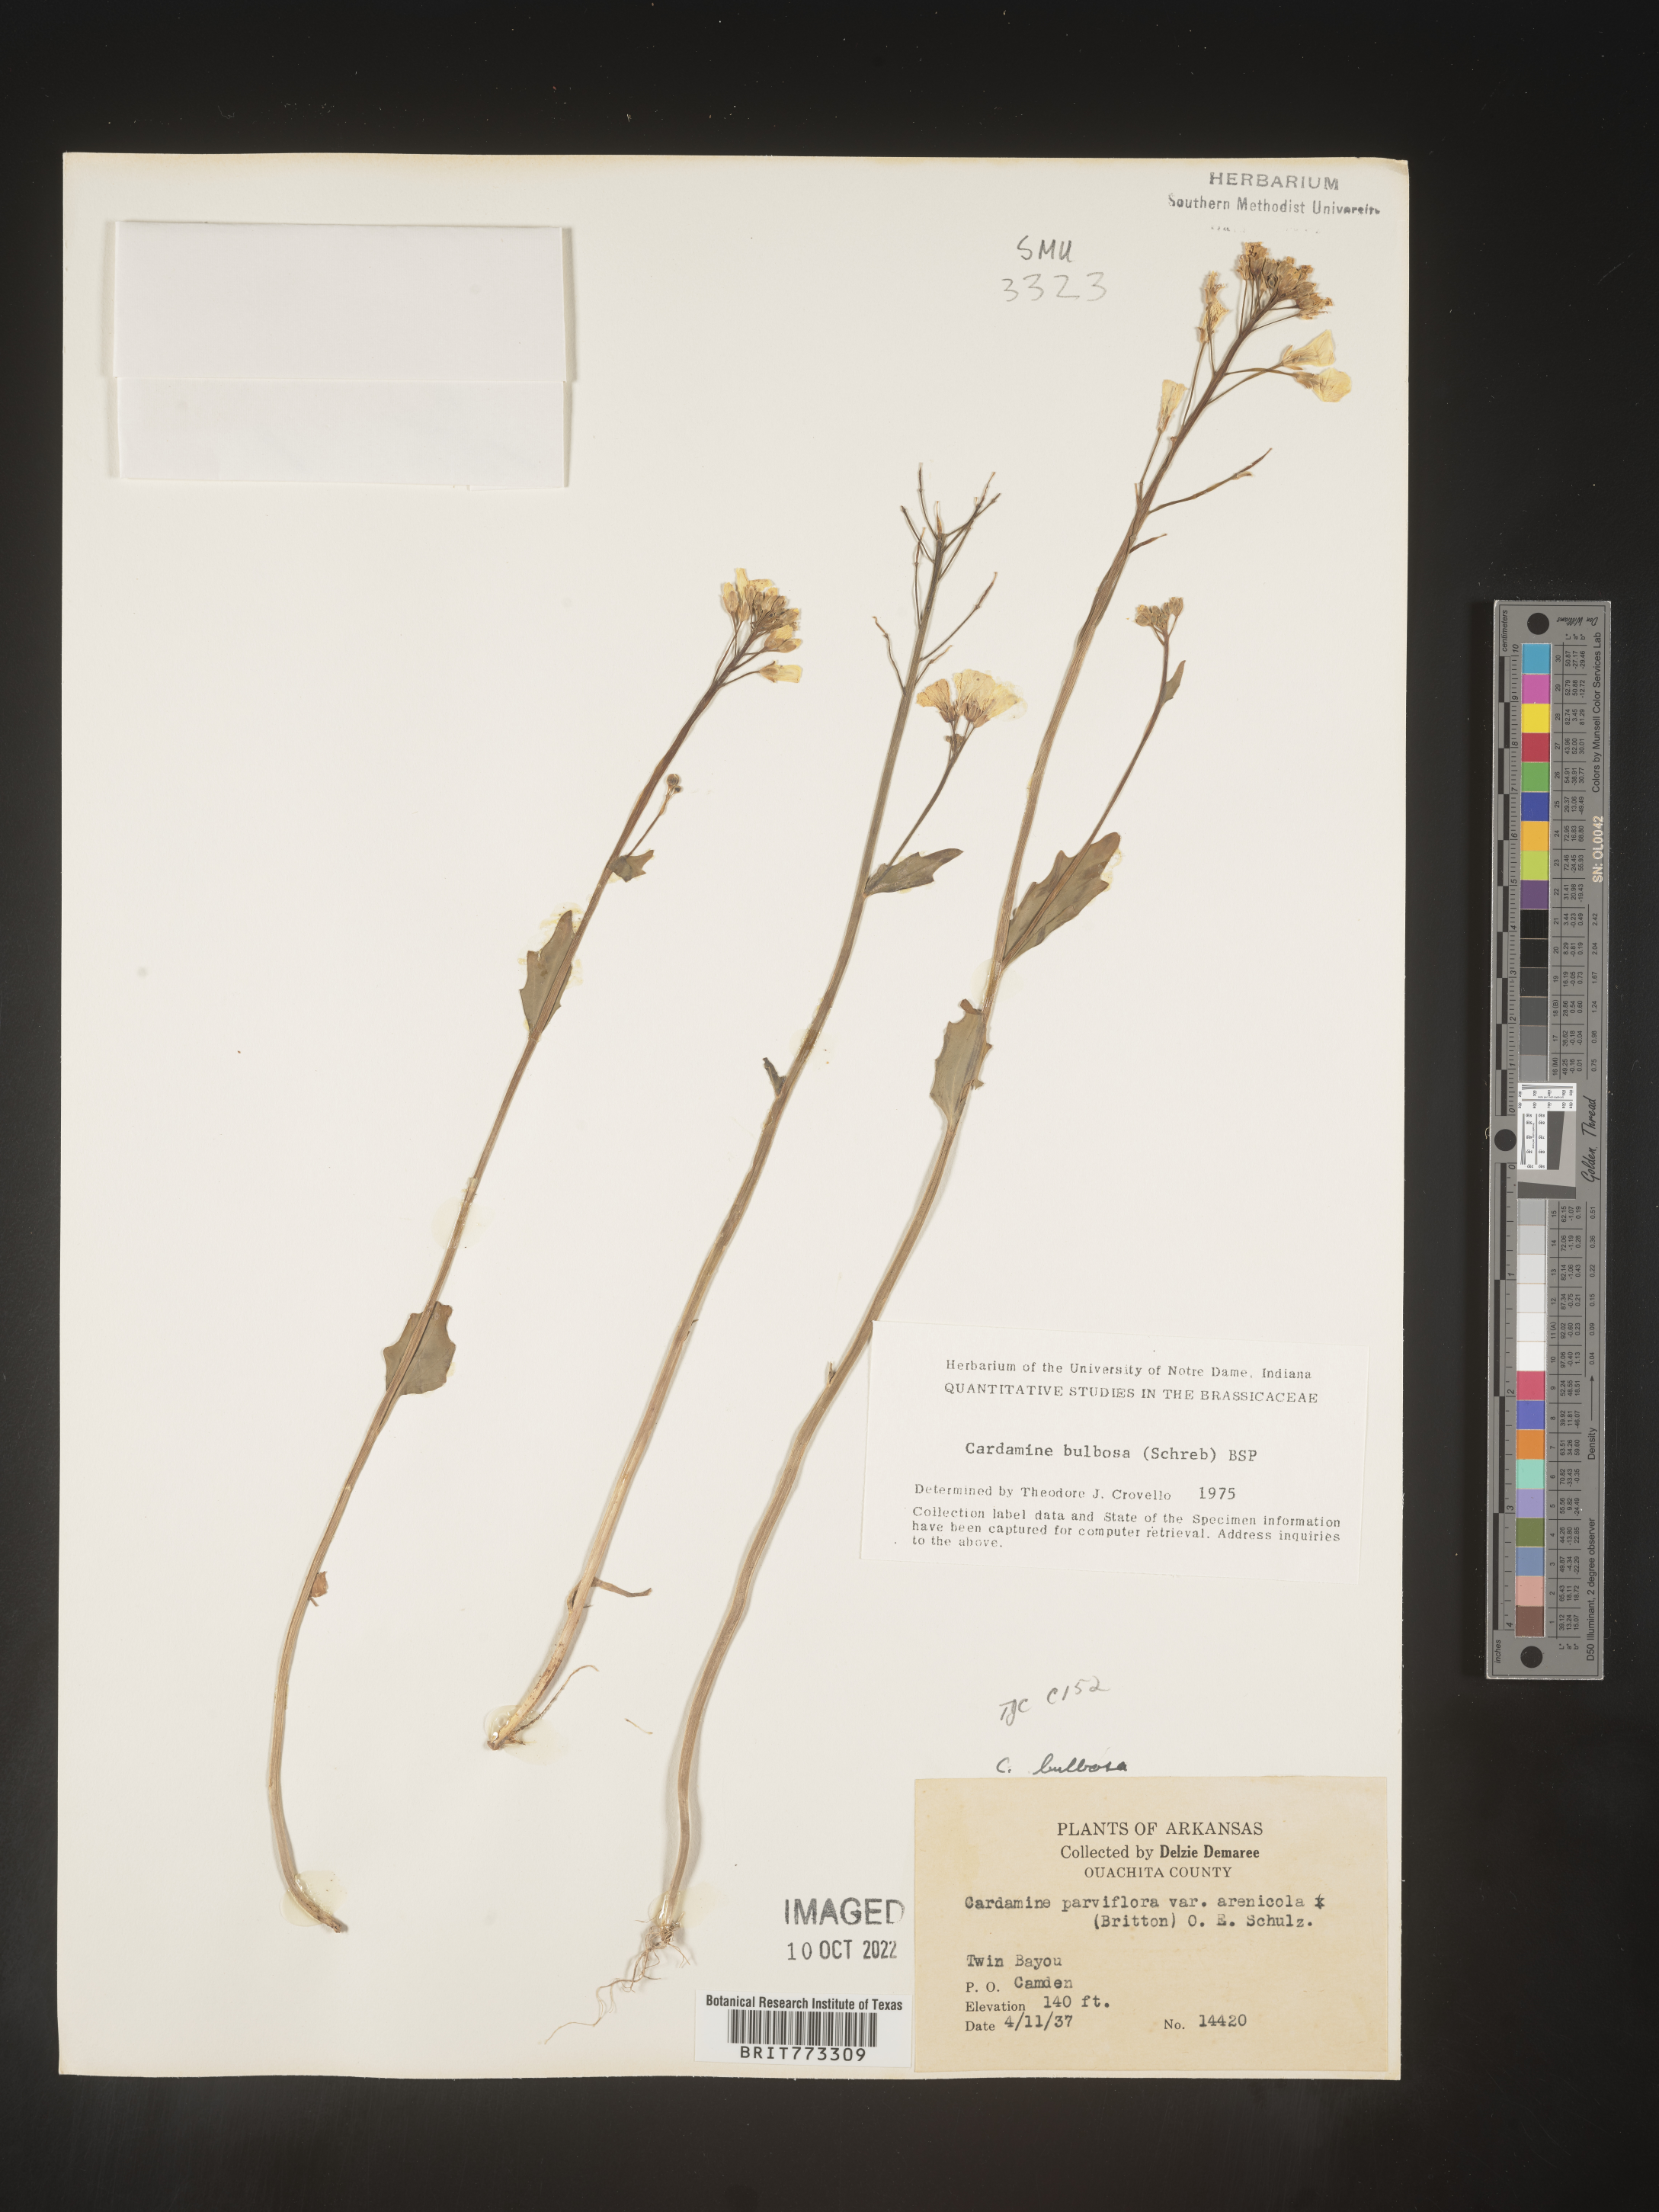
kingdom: Plantae
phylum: Tracheophyta
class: Magnoliopsida
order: Brassicales
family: Brassicaceae
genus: Cardamine
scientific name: Cardamine bulbosa
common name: Spring cress
